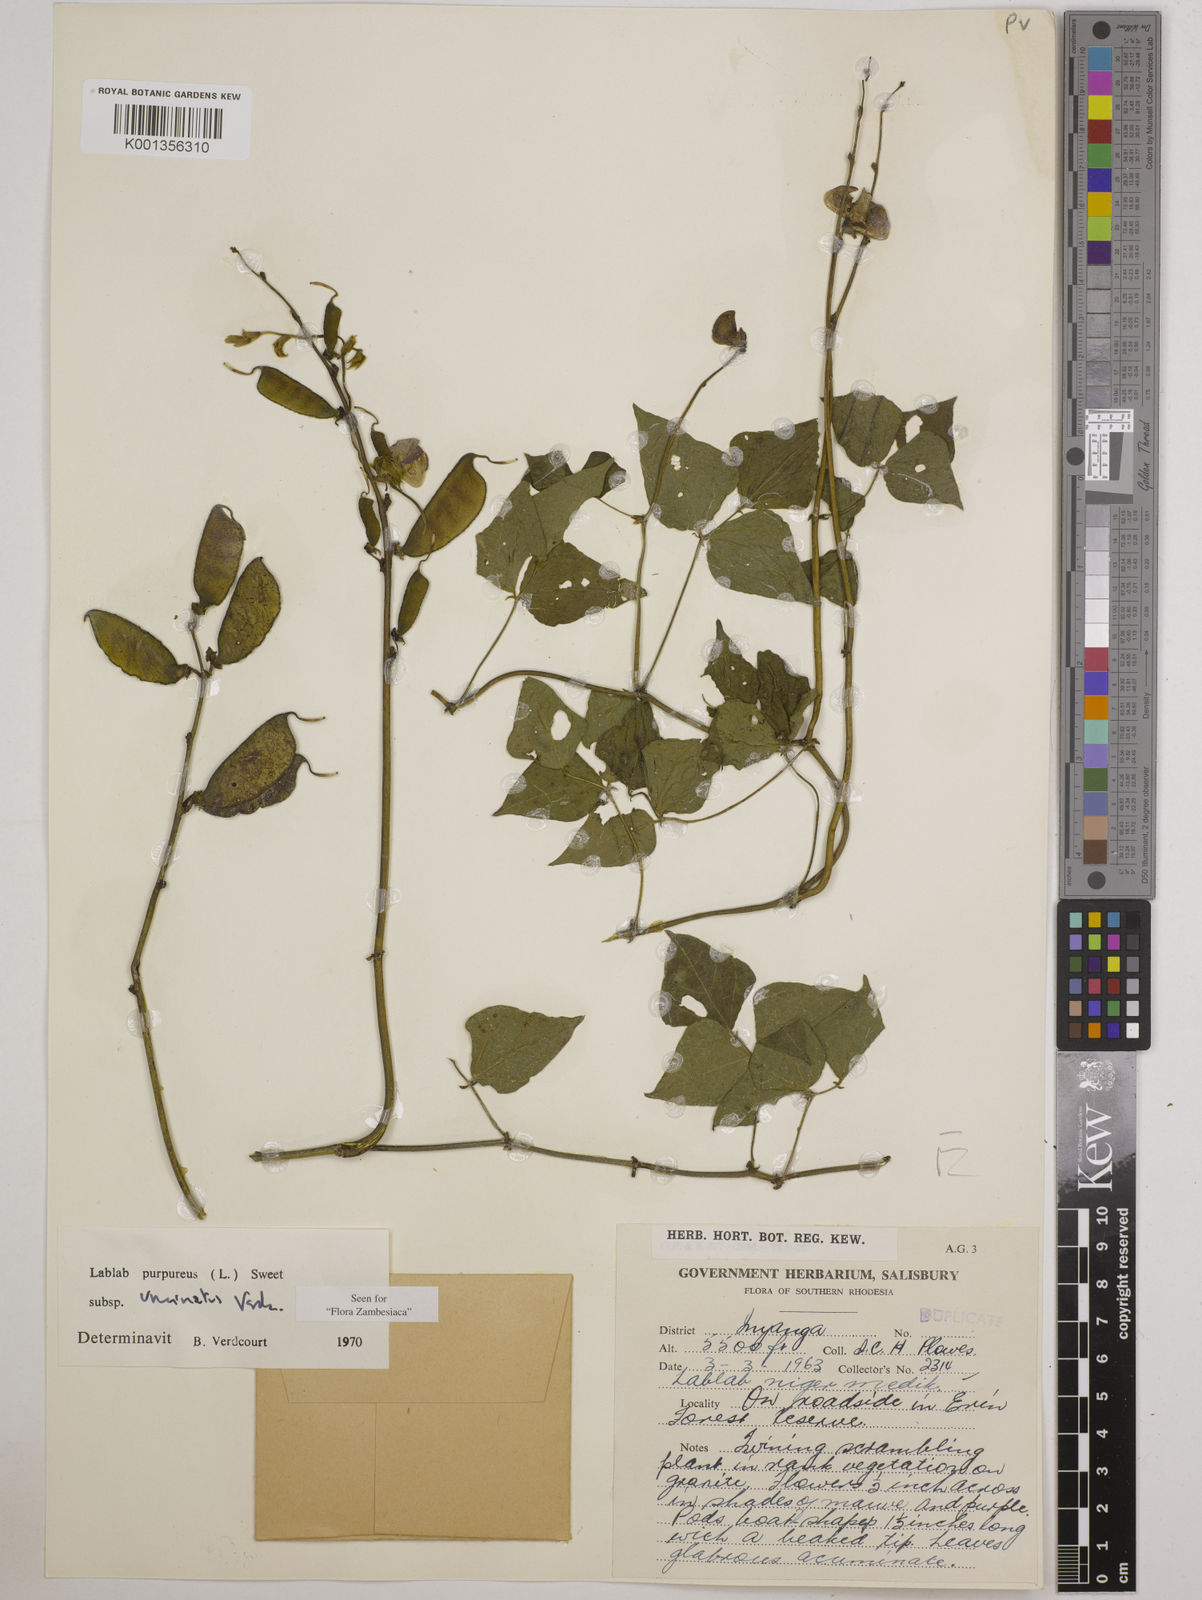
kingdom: Plantae
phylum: Tracheophyta
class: Magnoliopsida
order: Fabales
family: Fabaceae
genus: Lablab
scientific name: Lablab purpureus
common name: Lablab-bean
